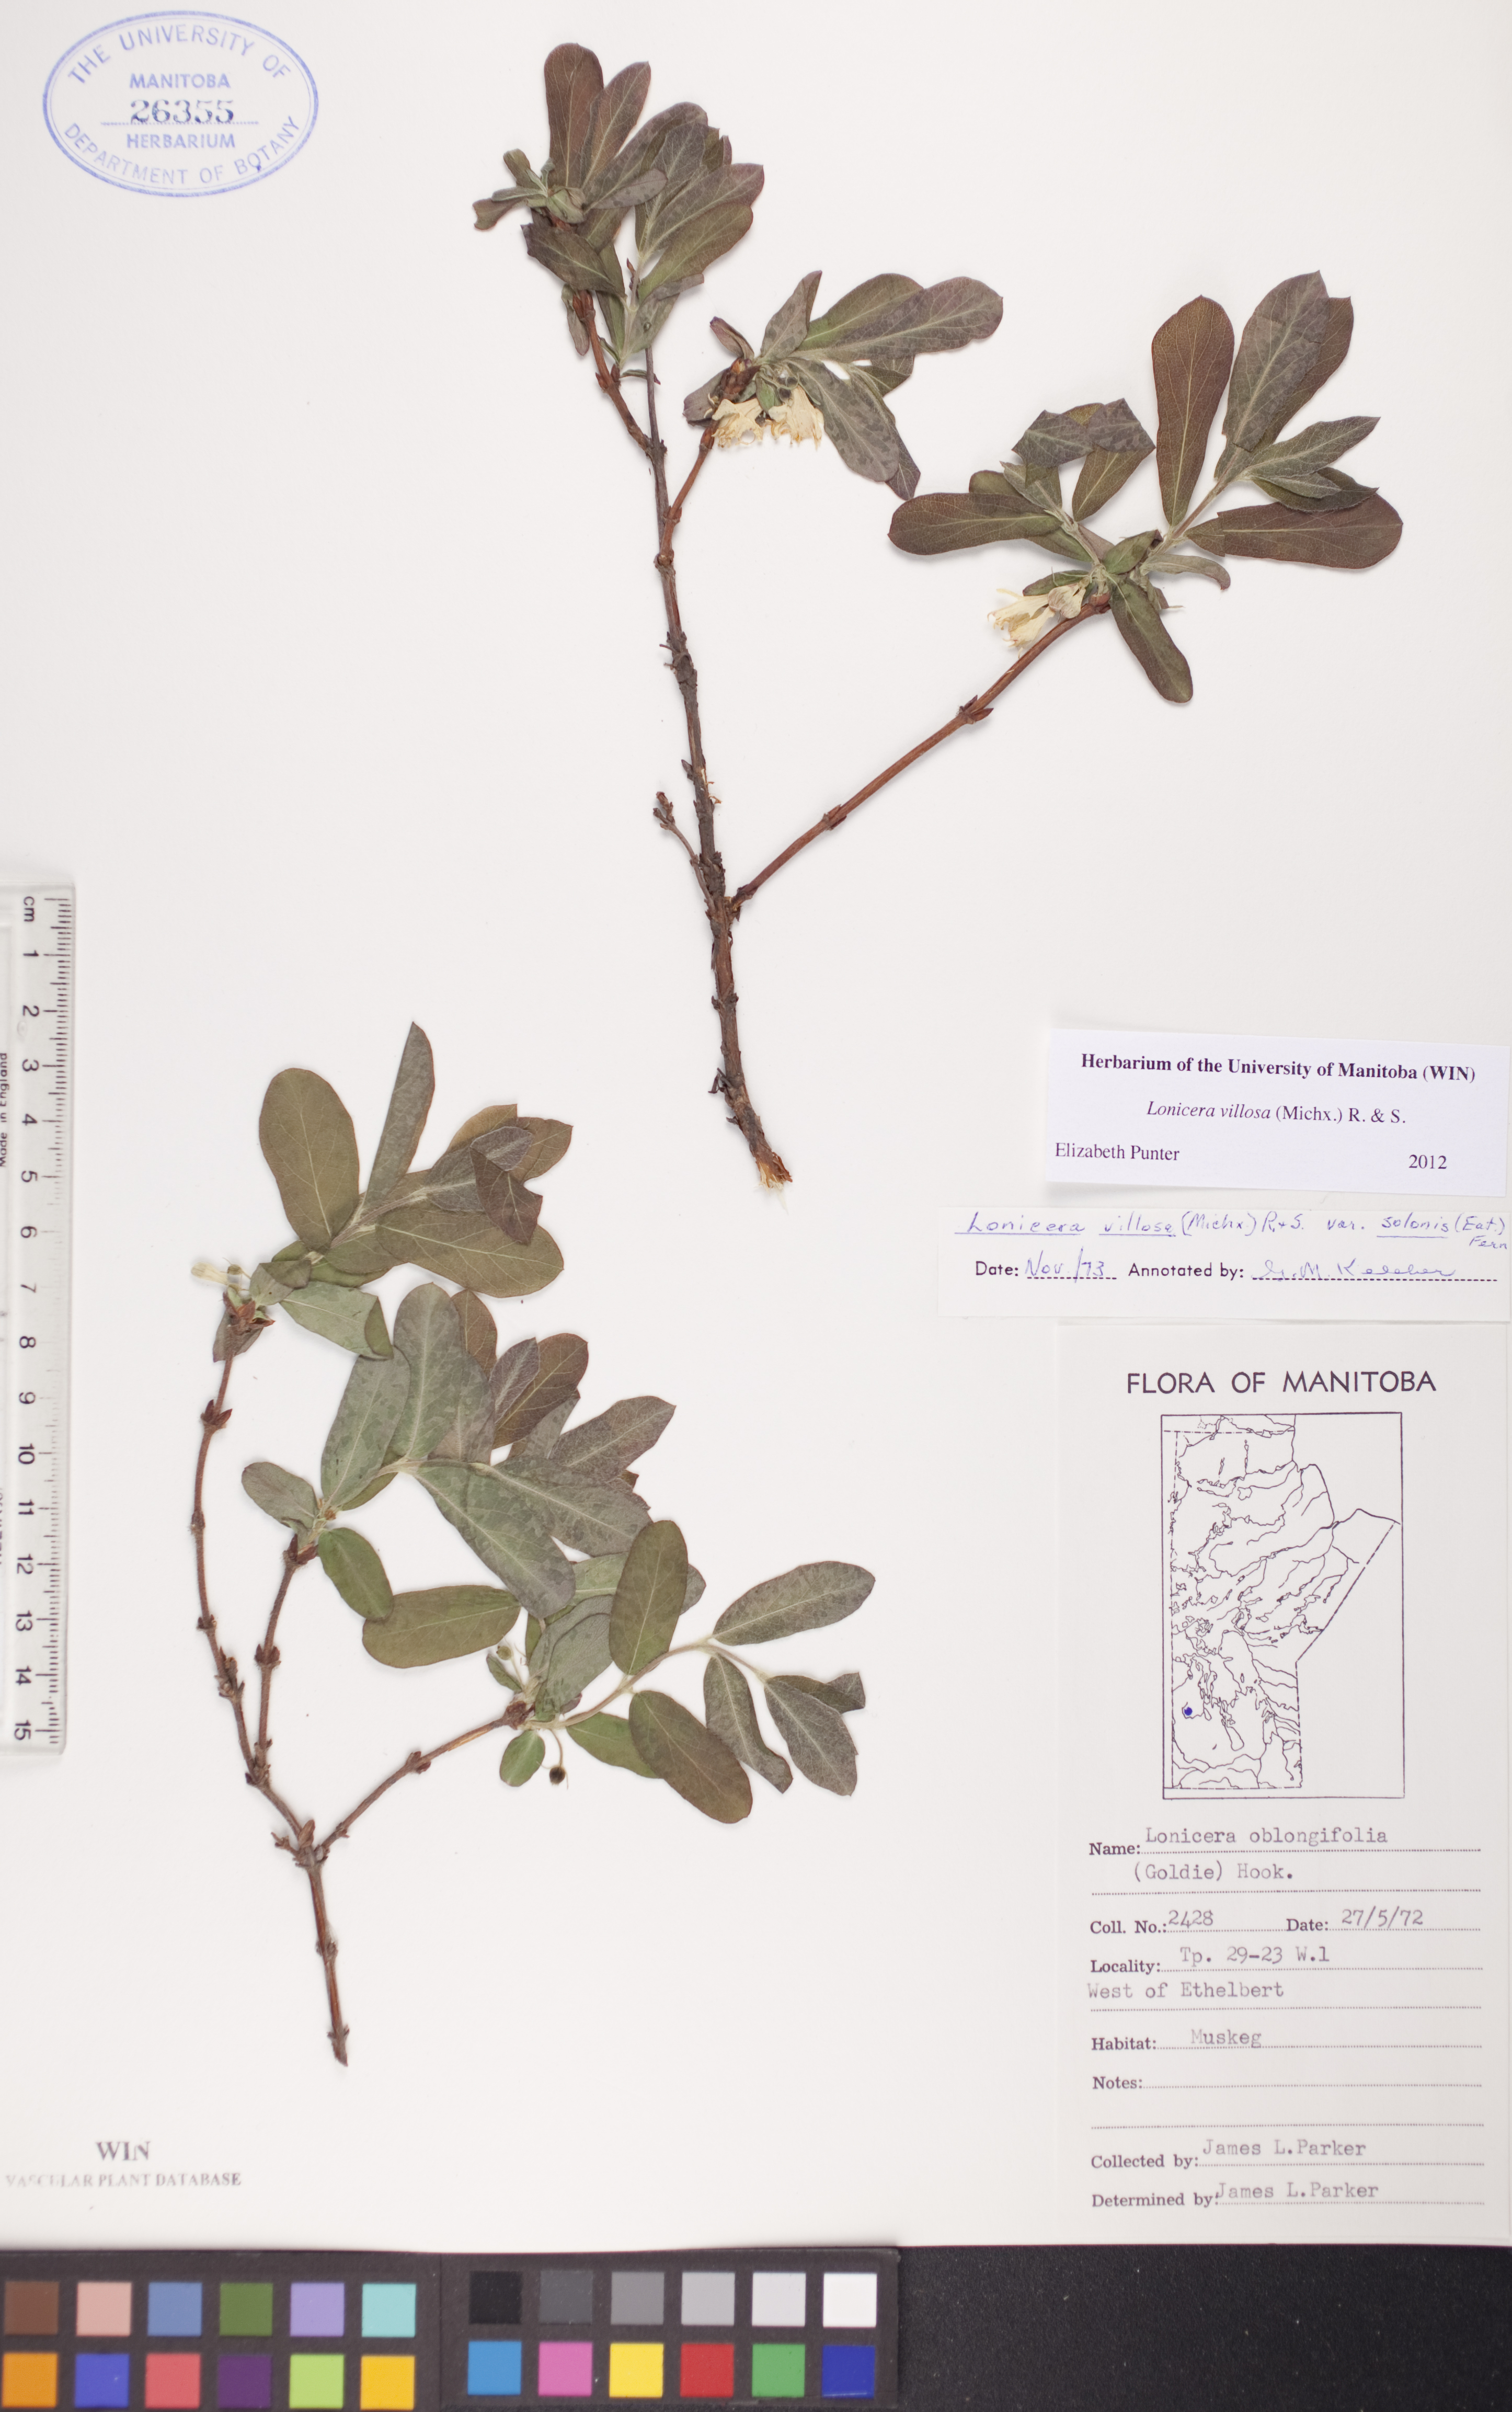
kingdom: Plantae
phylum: Tracheophyta
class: Magnoliopsida
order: Dipsacales
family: Caprifoliaceae
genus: Lonicera
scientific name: Lonicera villosa
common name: Mountain fly-honeysuckle
